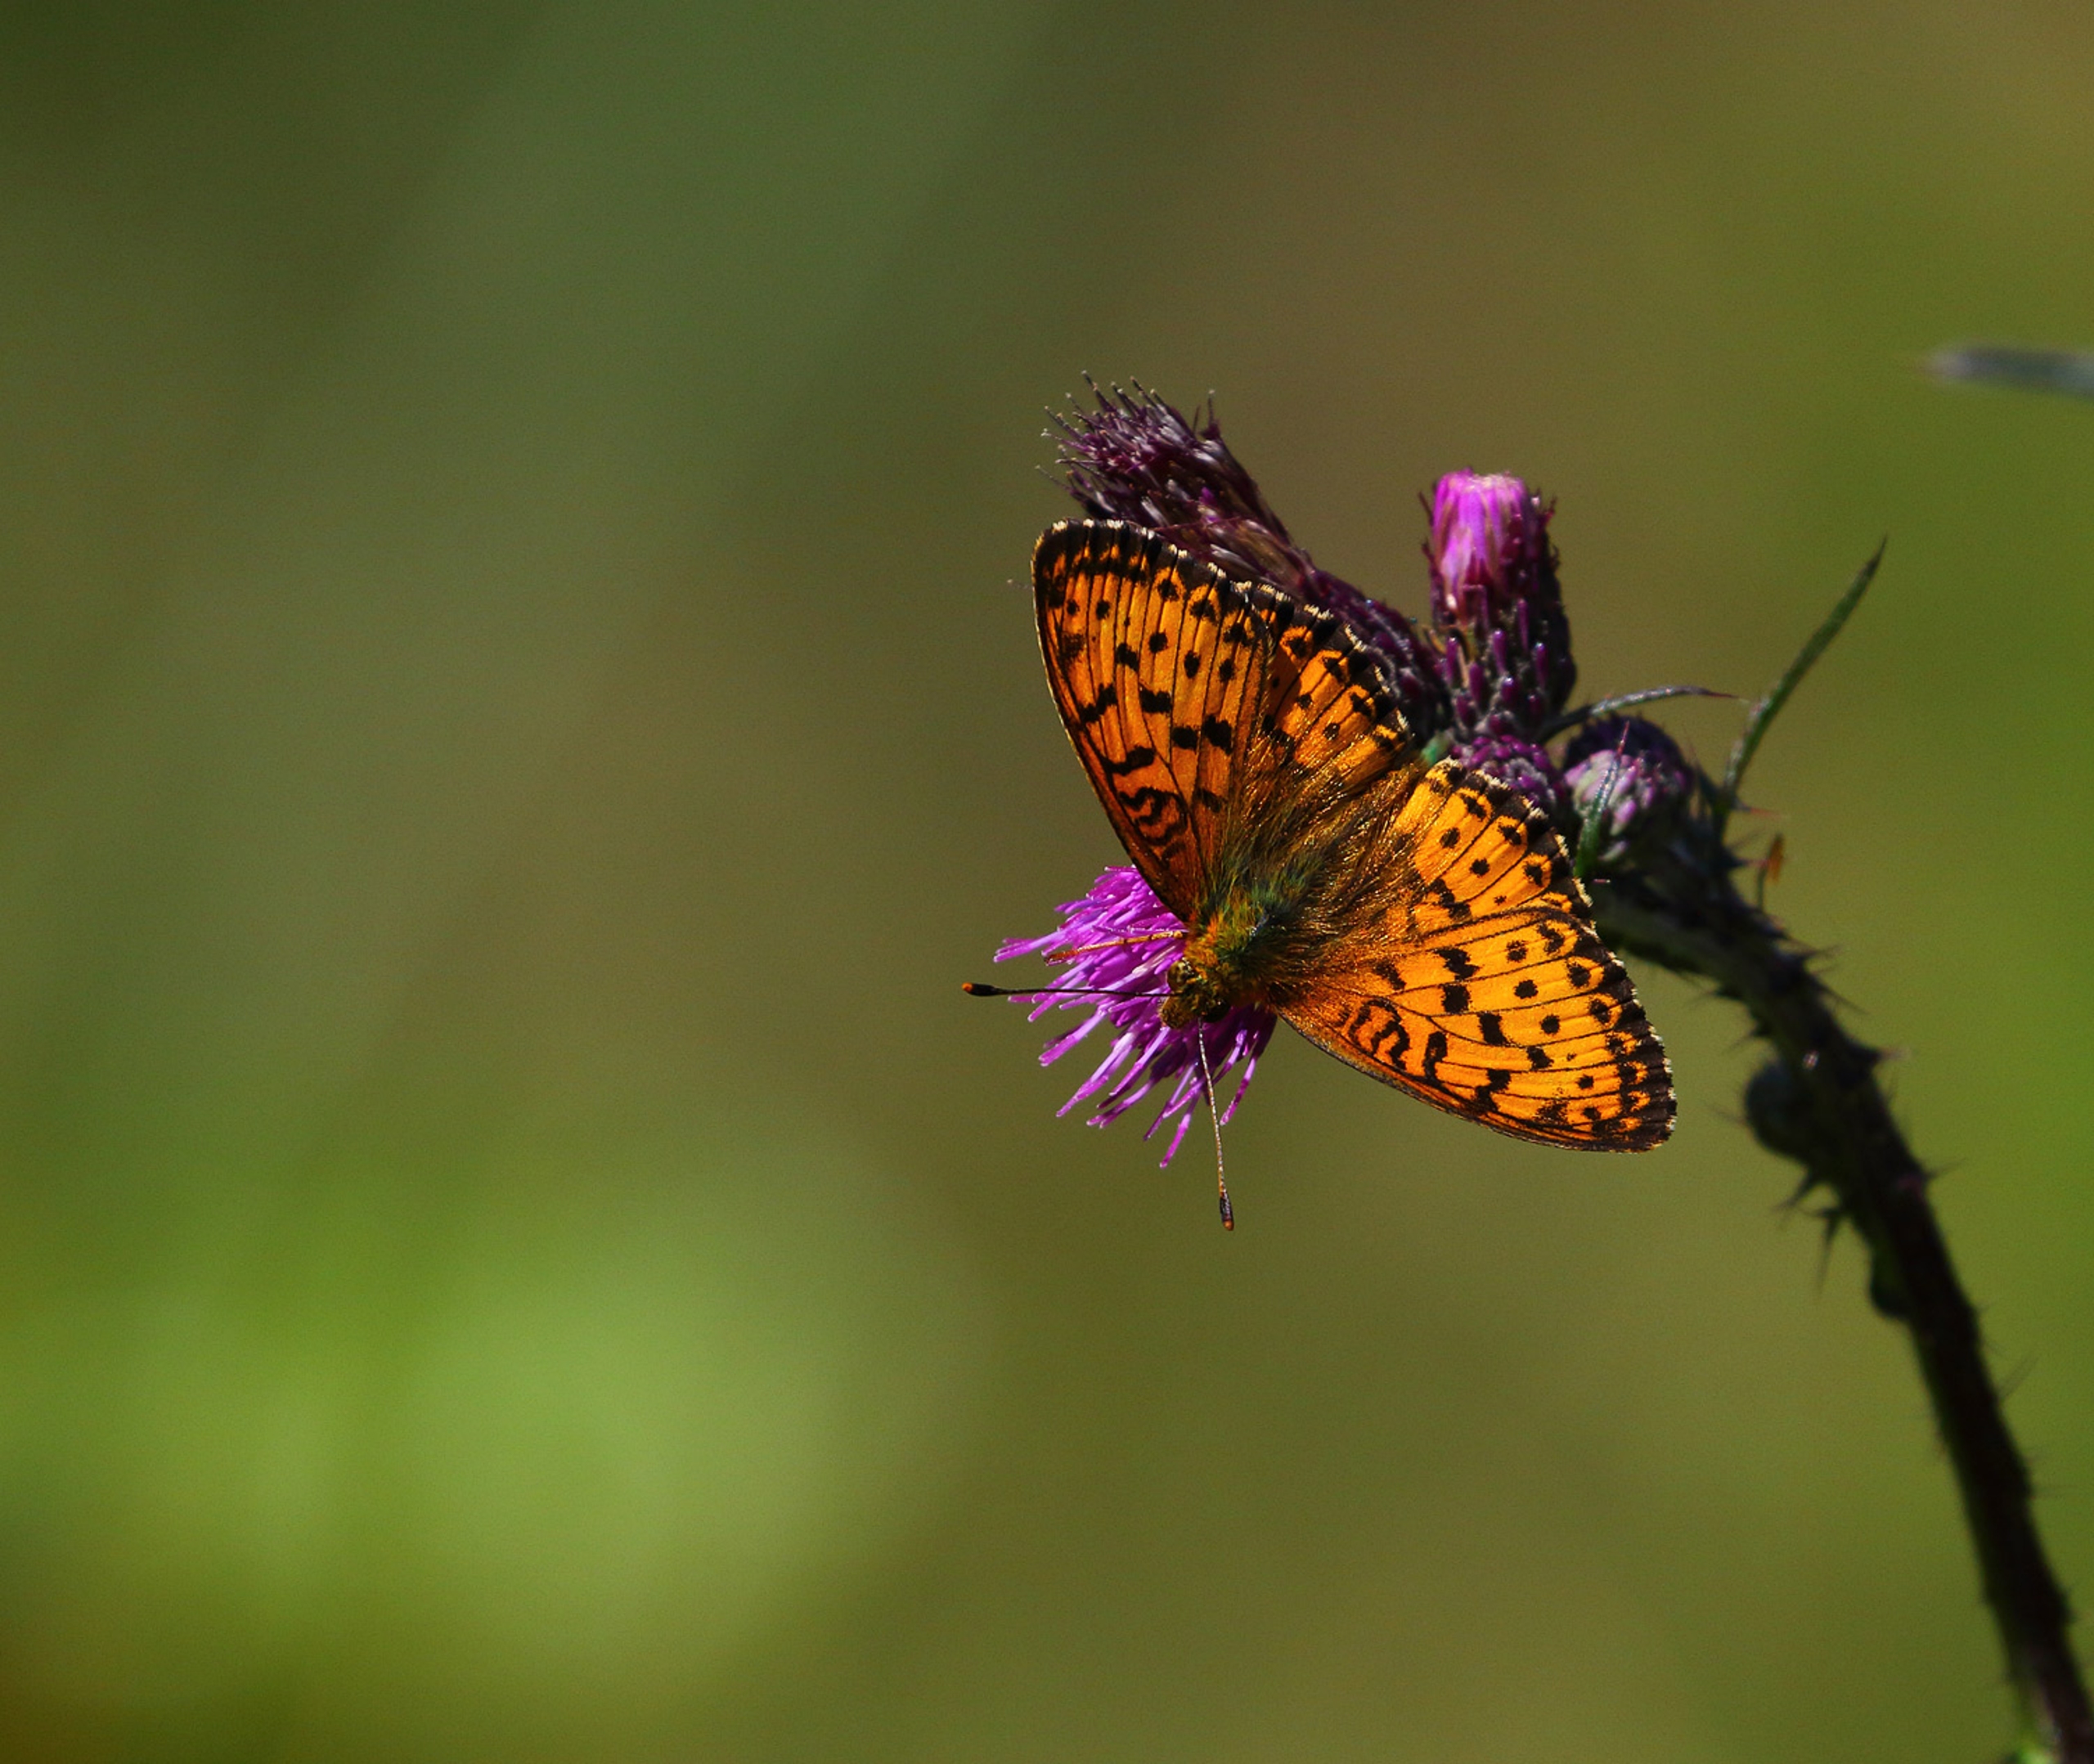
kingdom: Animalia
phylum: Arthropoda
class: Insecta
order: Lepidoptera
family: Nymphalidae
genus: Brenthis
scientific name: Brenthis ino
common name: Engperlemorsommerfugl
